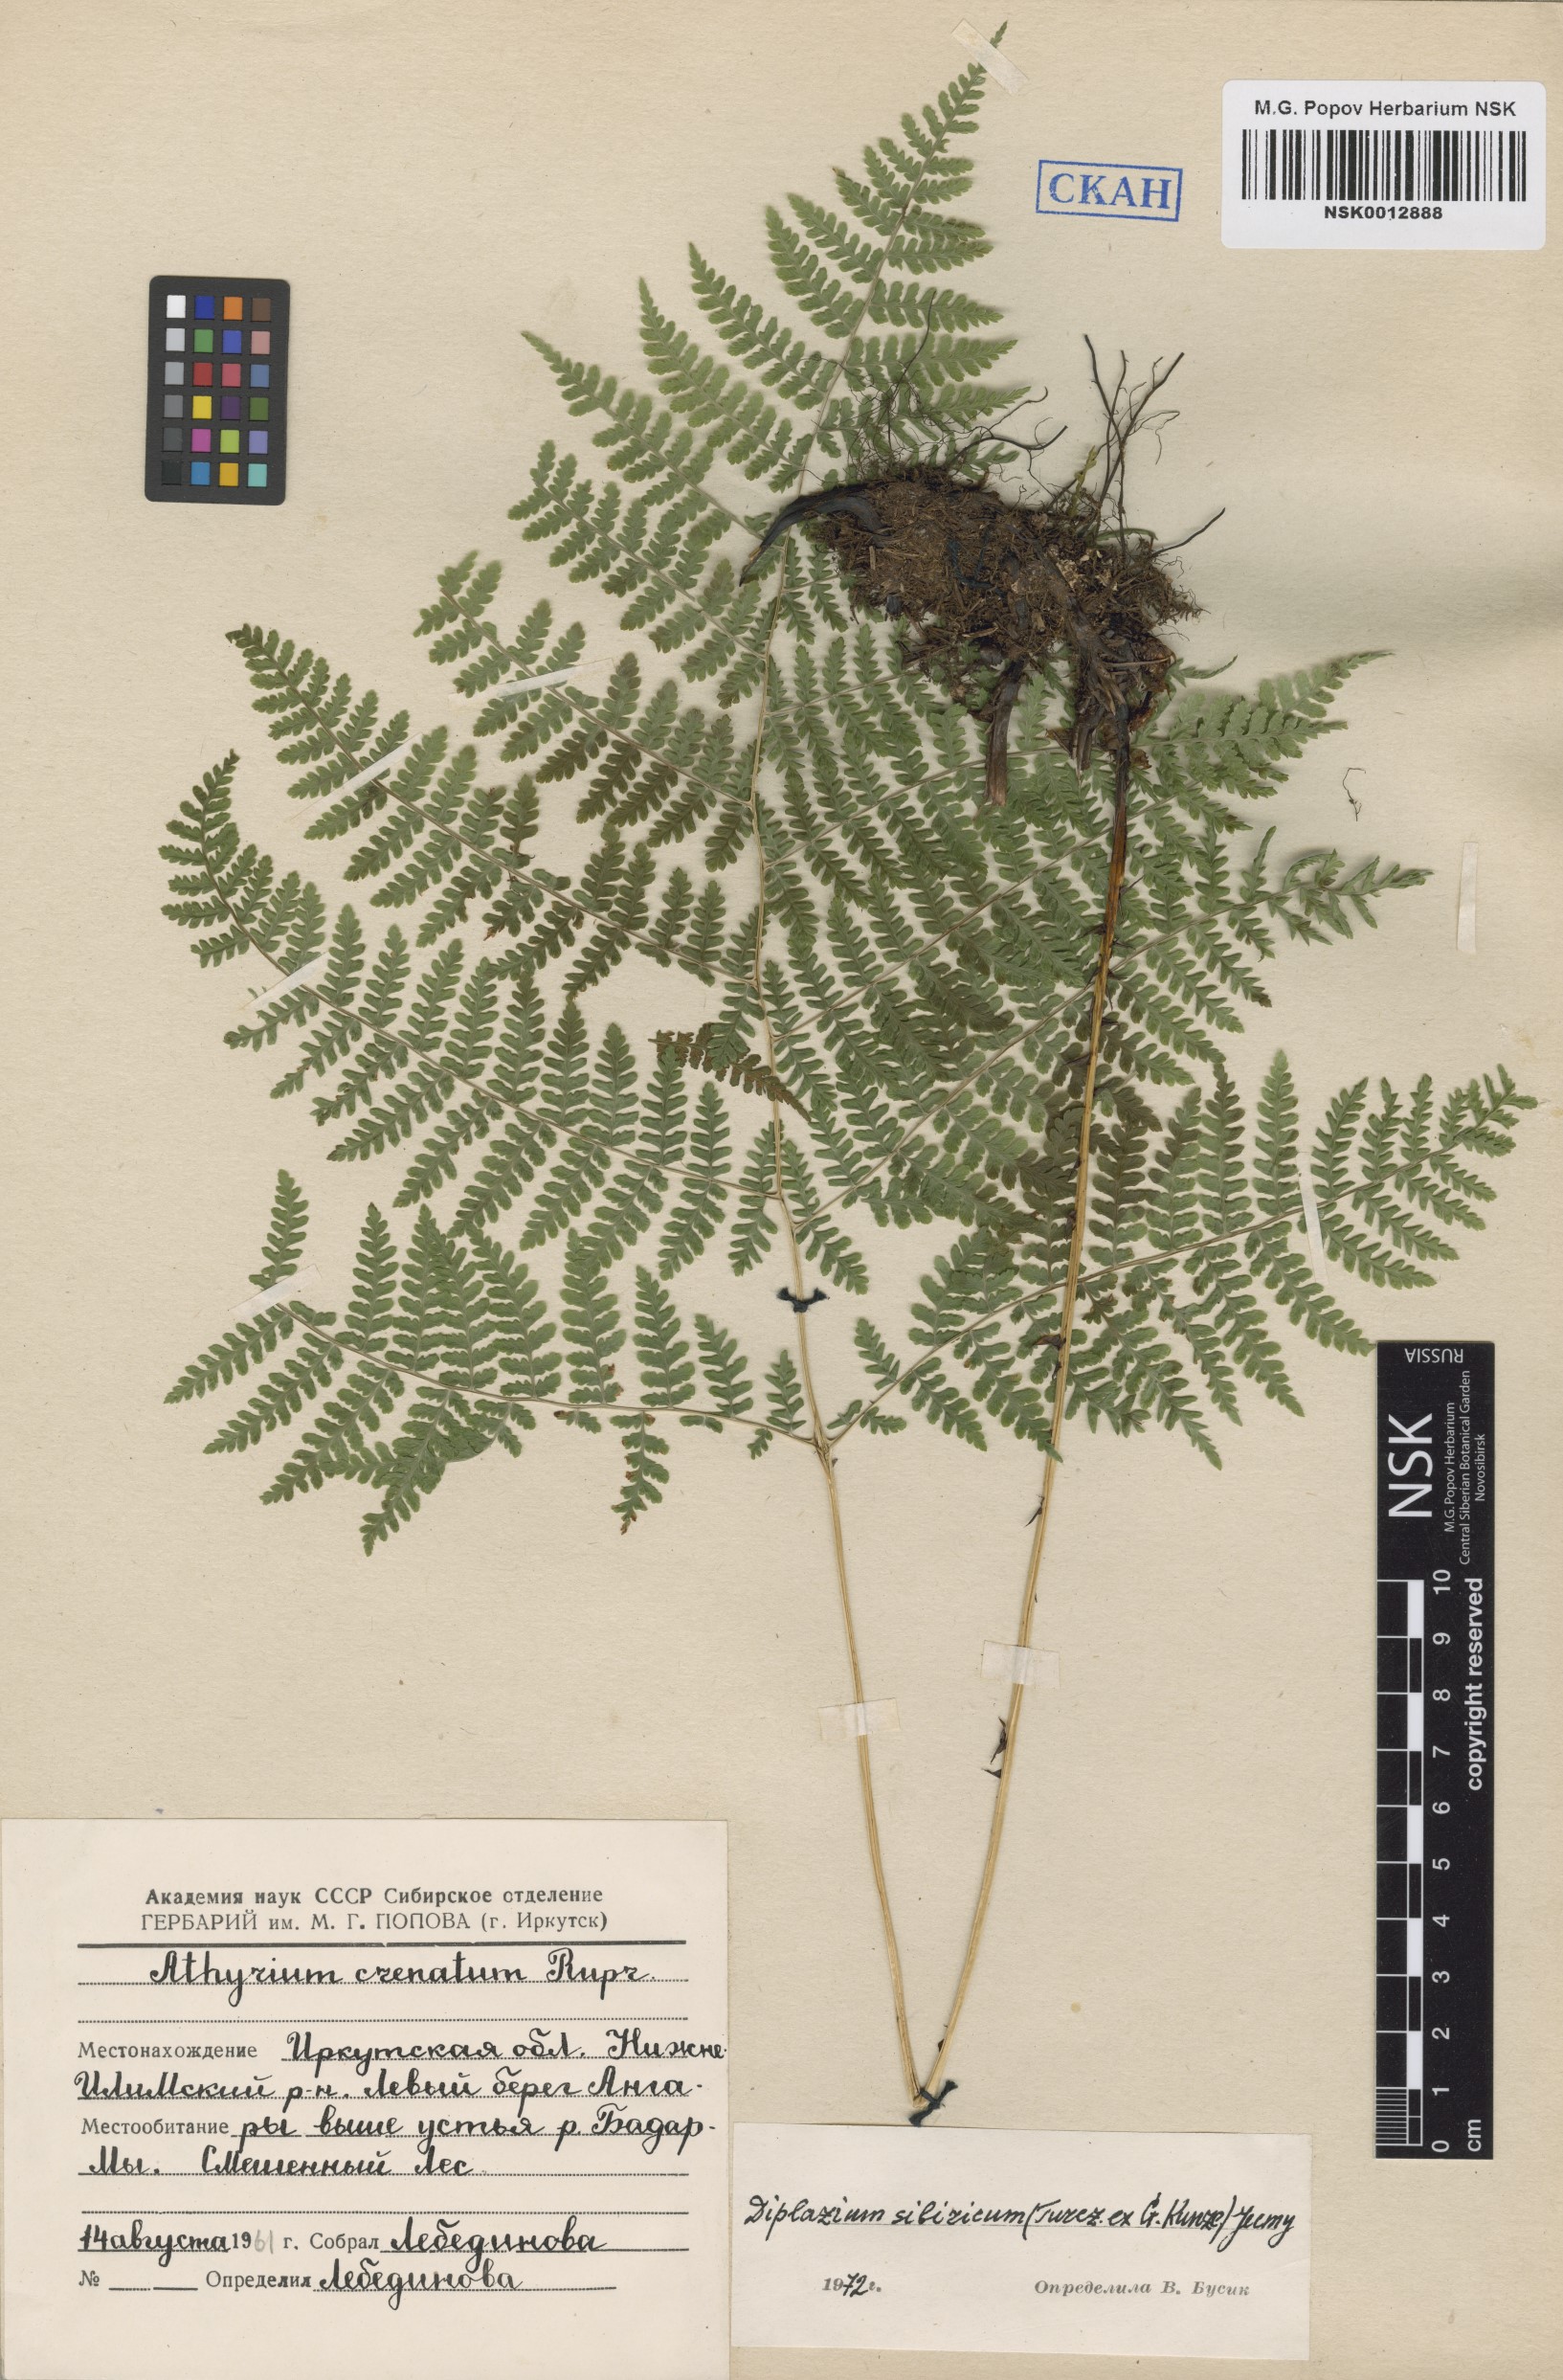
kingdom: Plantae
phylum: Tracheophyta
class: Polypodiopsida
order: Polypodiales
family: Athyriaceae
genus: Diplazium
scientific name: Diplazium sibiricum
